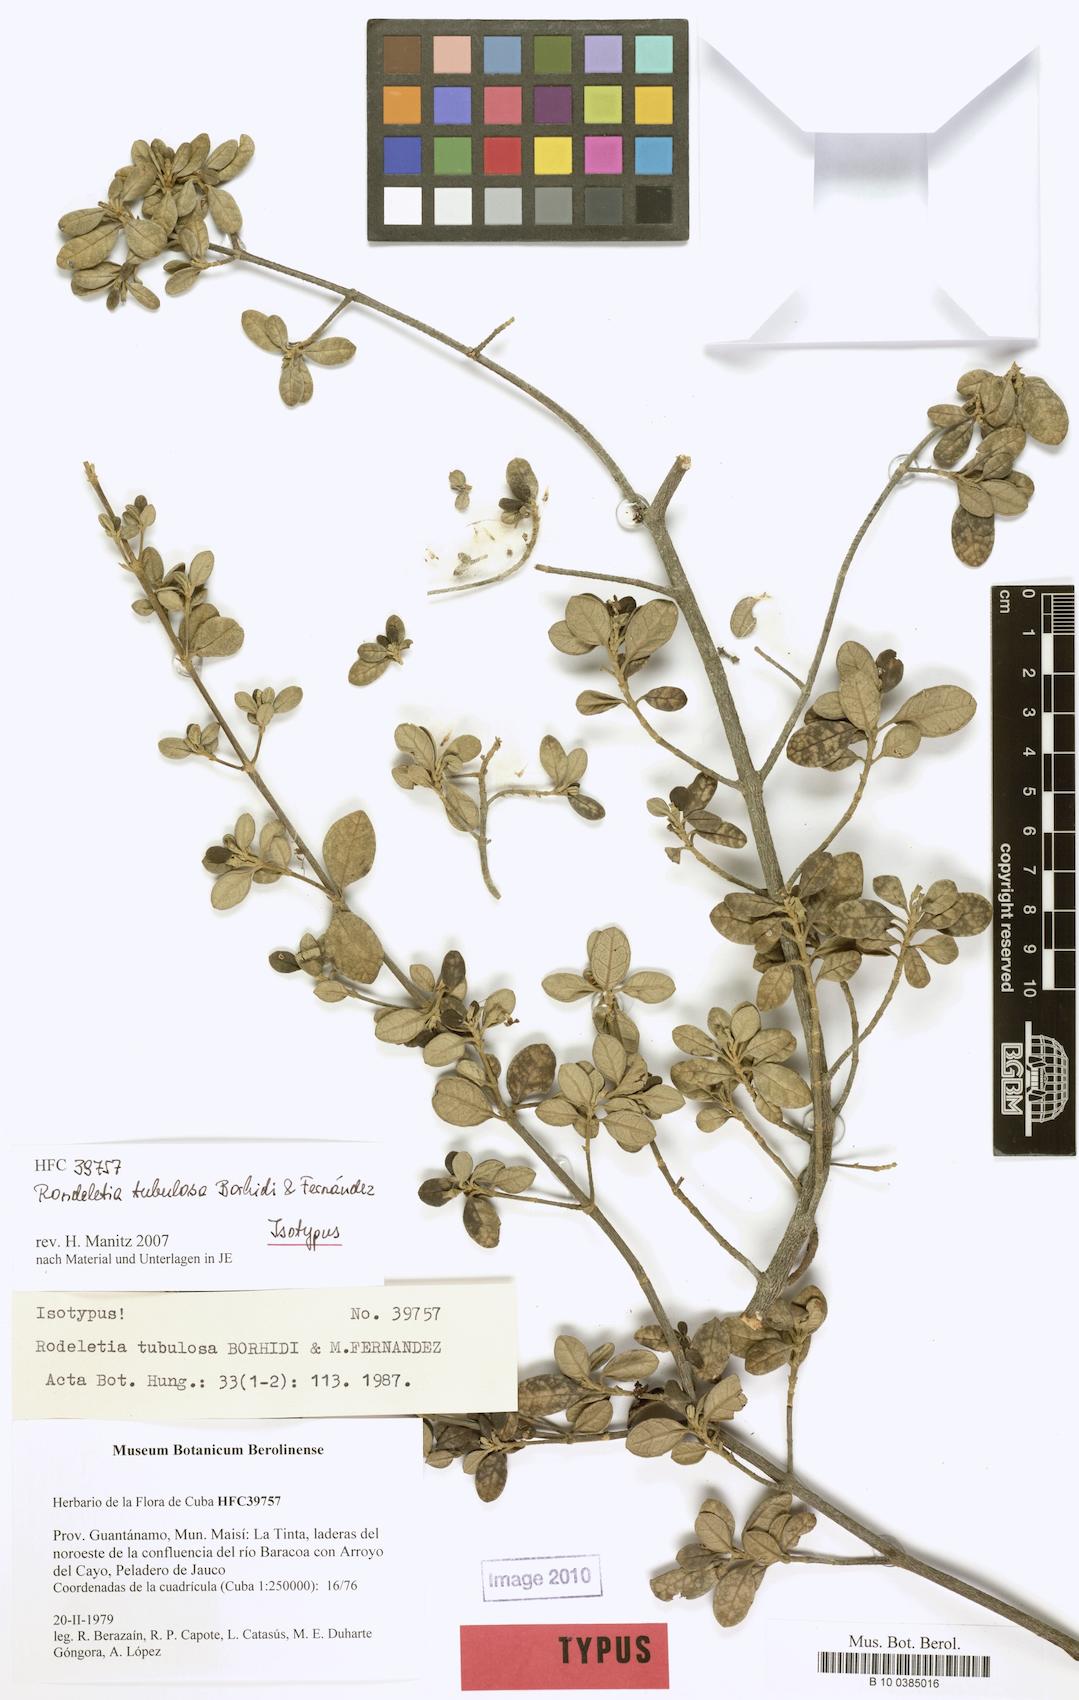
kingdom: Plantae
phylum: Tracheophyta
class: Magnoliopsida
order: Gentianales
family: Rubiaceae
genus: Rondeletia
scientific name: Rondeletia tubulosa
